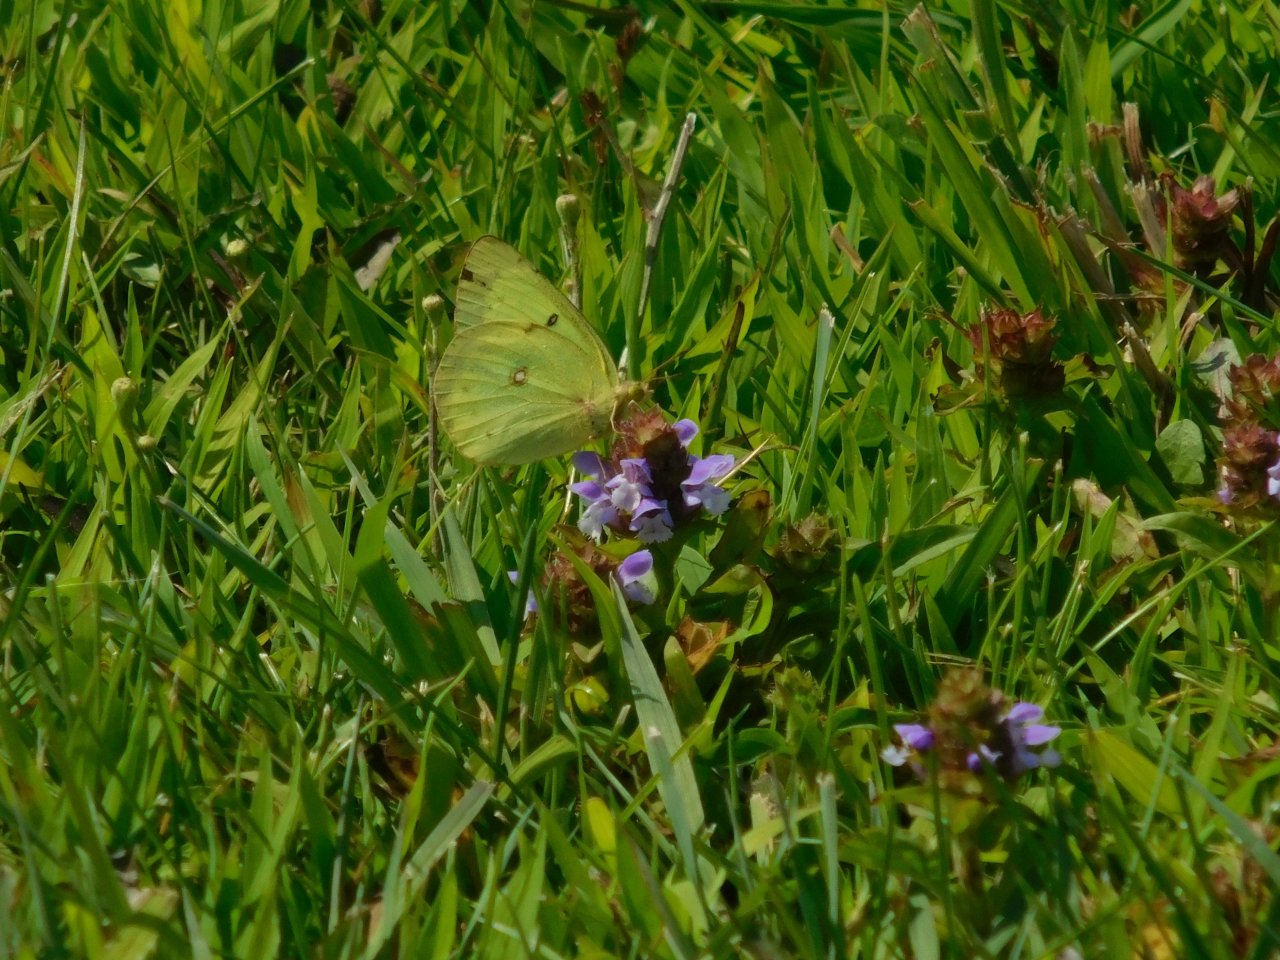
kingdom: Animalia
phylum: Arthropoda
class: Insecta
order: Lepidoptera
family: Pieridae
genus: Colias
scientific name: Colias philodice
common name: Clouded Sulphur
